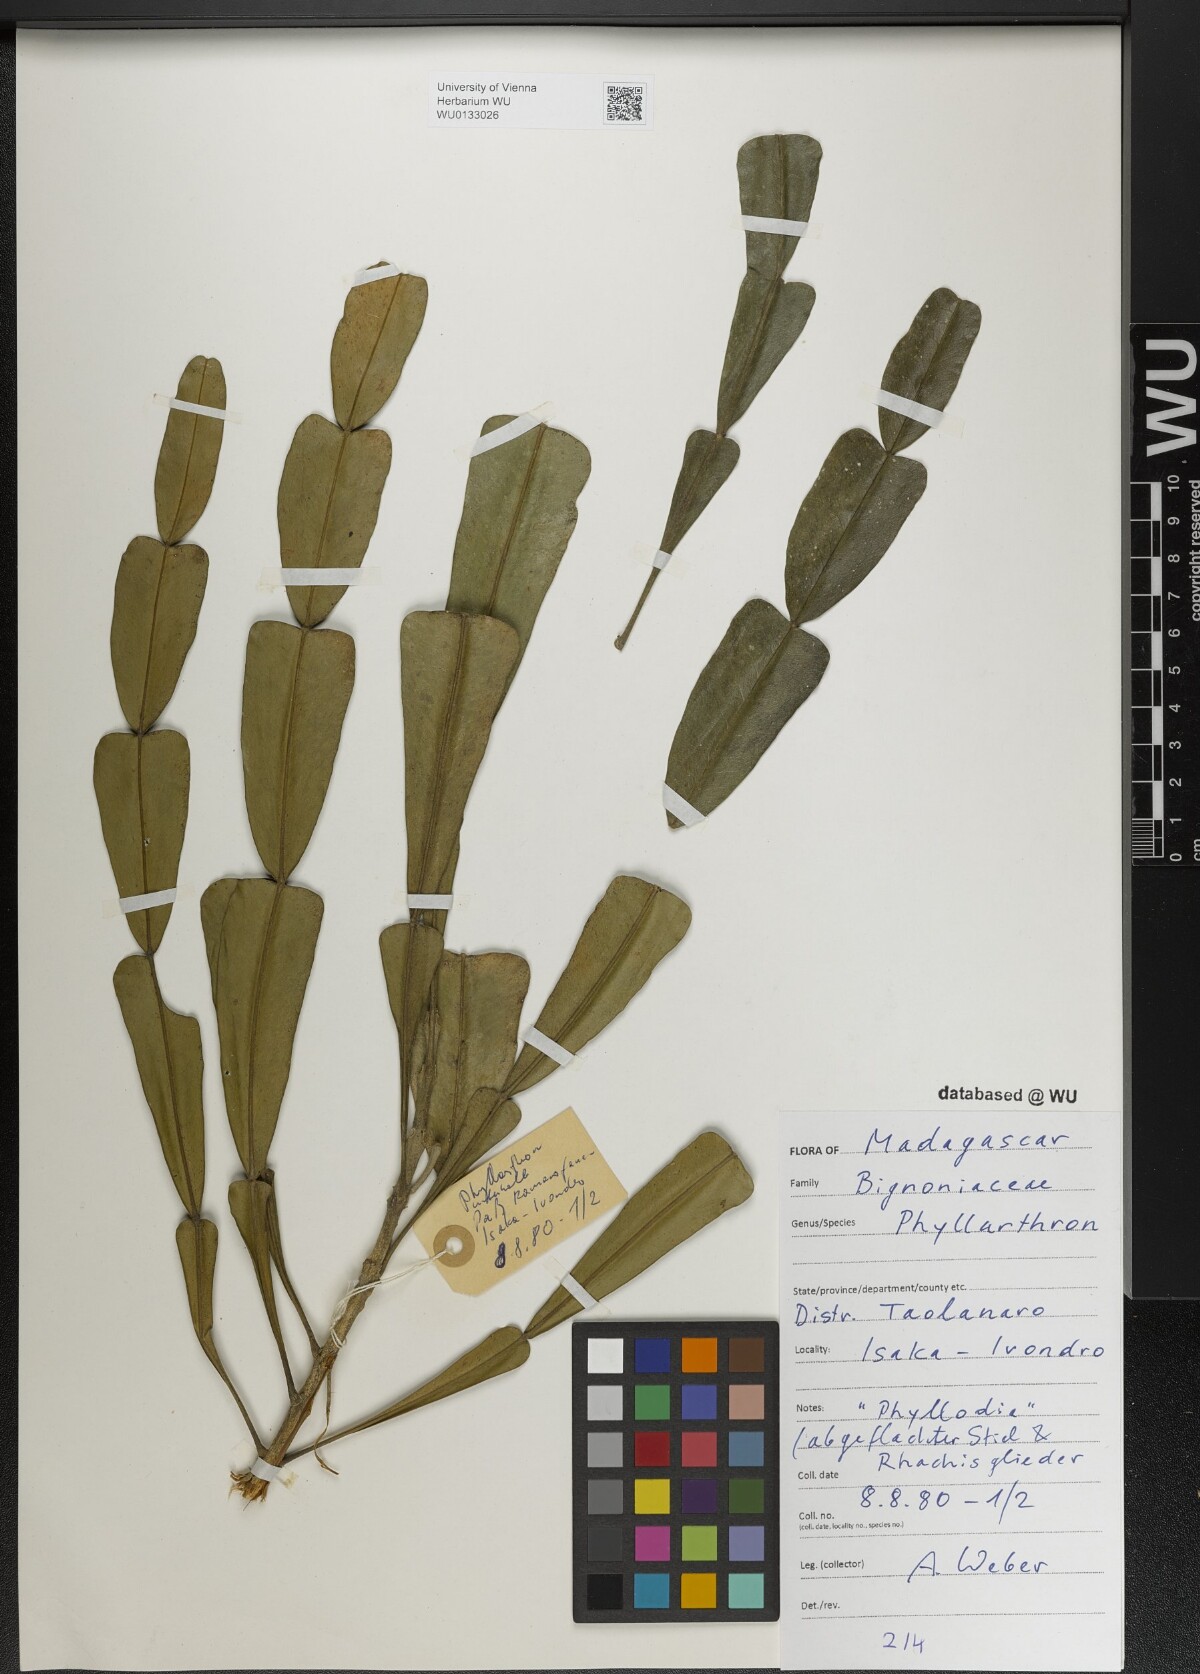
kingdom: Plantae
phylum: Tracheophyta
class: Magnoliopsida
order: Lamiales
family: Bignoniaceae
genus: Phyllarthron
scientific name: Phyllarthron
